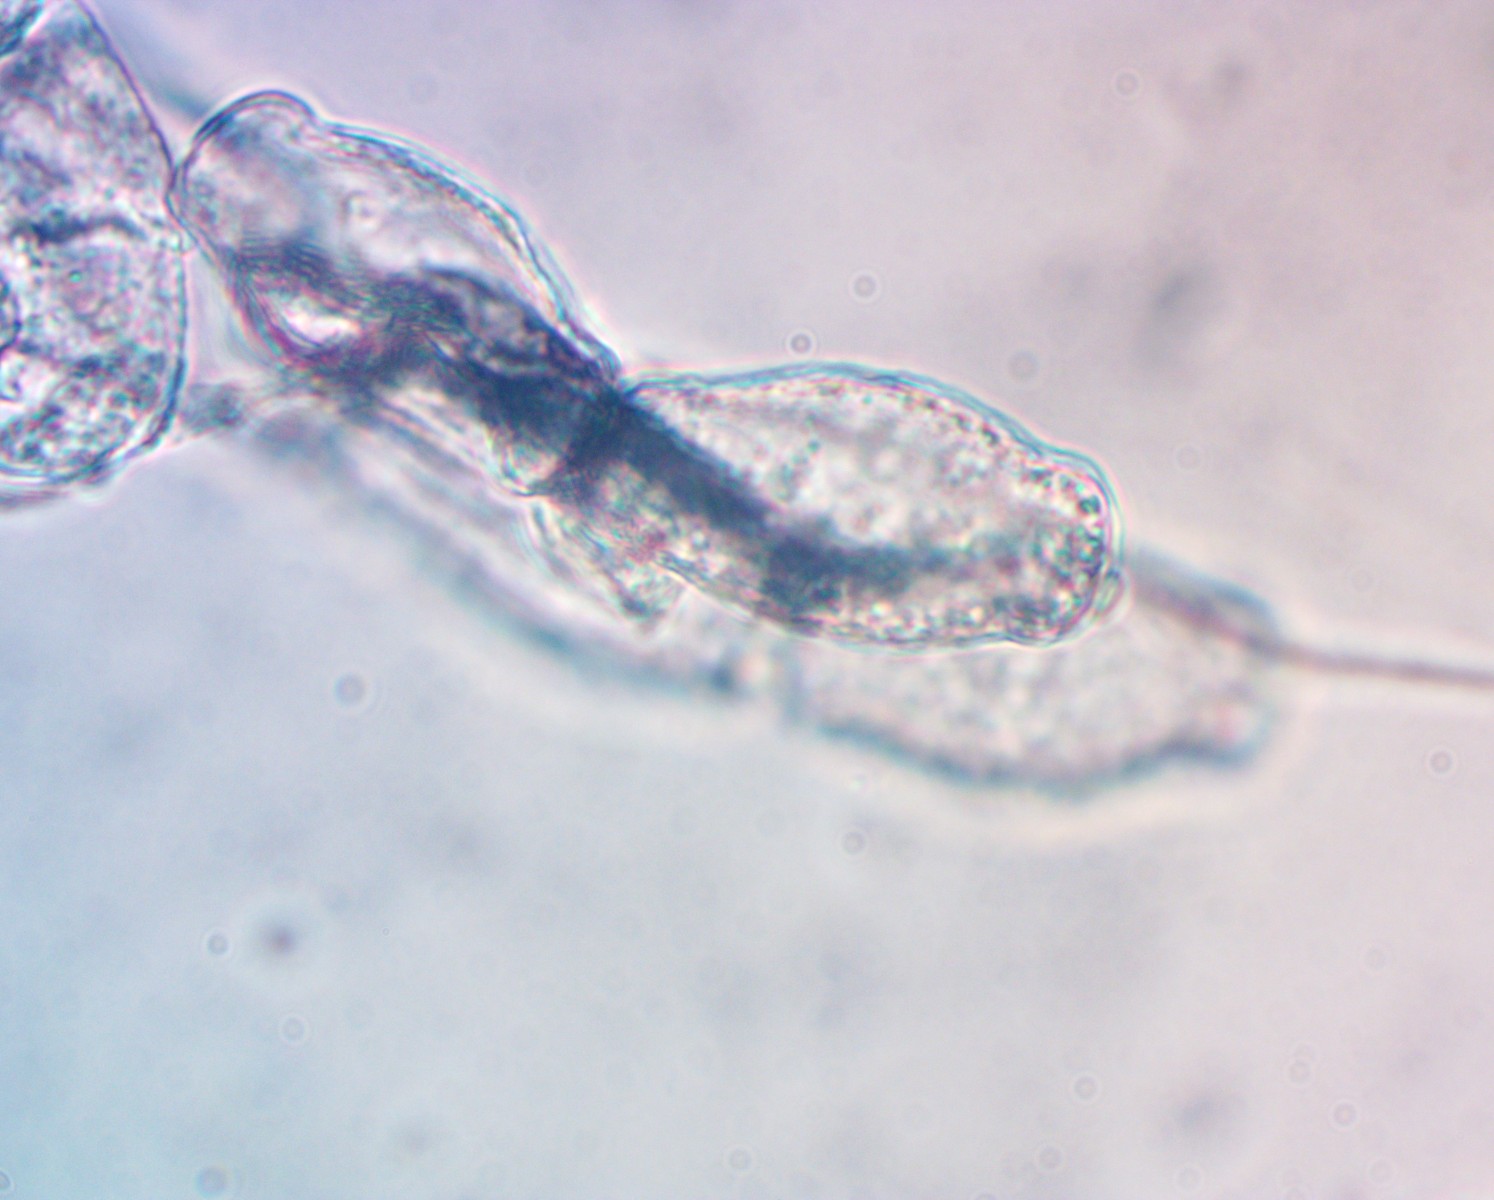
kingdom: Fungi
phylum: Ascomycota
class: Leotiomycetes
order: Helotiales
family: Erysiphaceae
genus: Golovinomyces
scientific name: Golovinomyces verbasci
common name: kongelys-meldug
